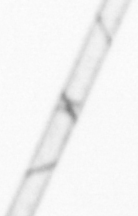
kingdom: Chromista
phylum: Ochrophyta
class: Bacillariophyceae
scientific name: Bacillariophyceae
